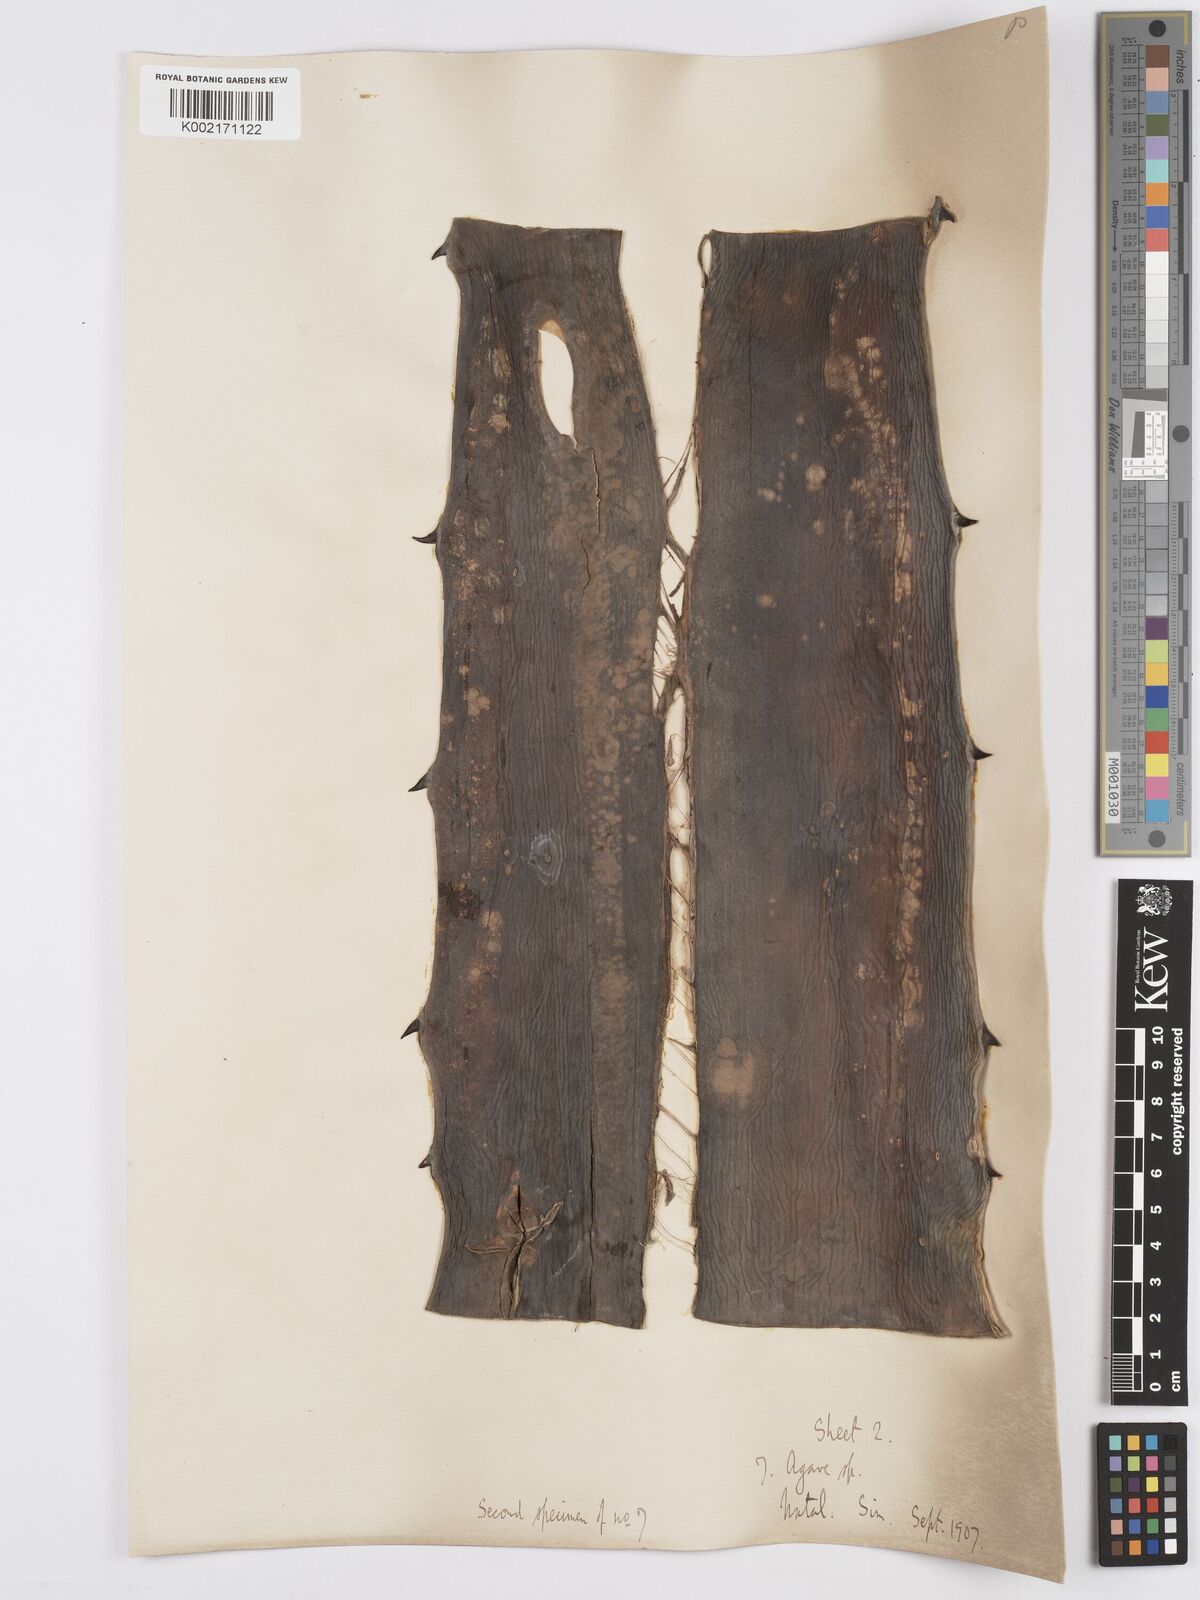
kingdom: Plantae
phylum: Tracheophyta
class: Liliopsida
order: Asparagales
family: Asparagaceae
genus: Agave
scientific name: Agave
